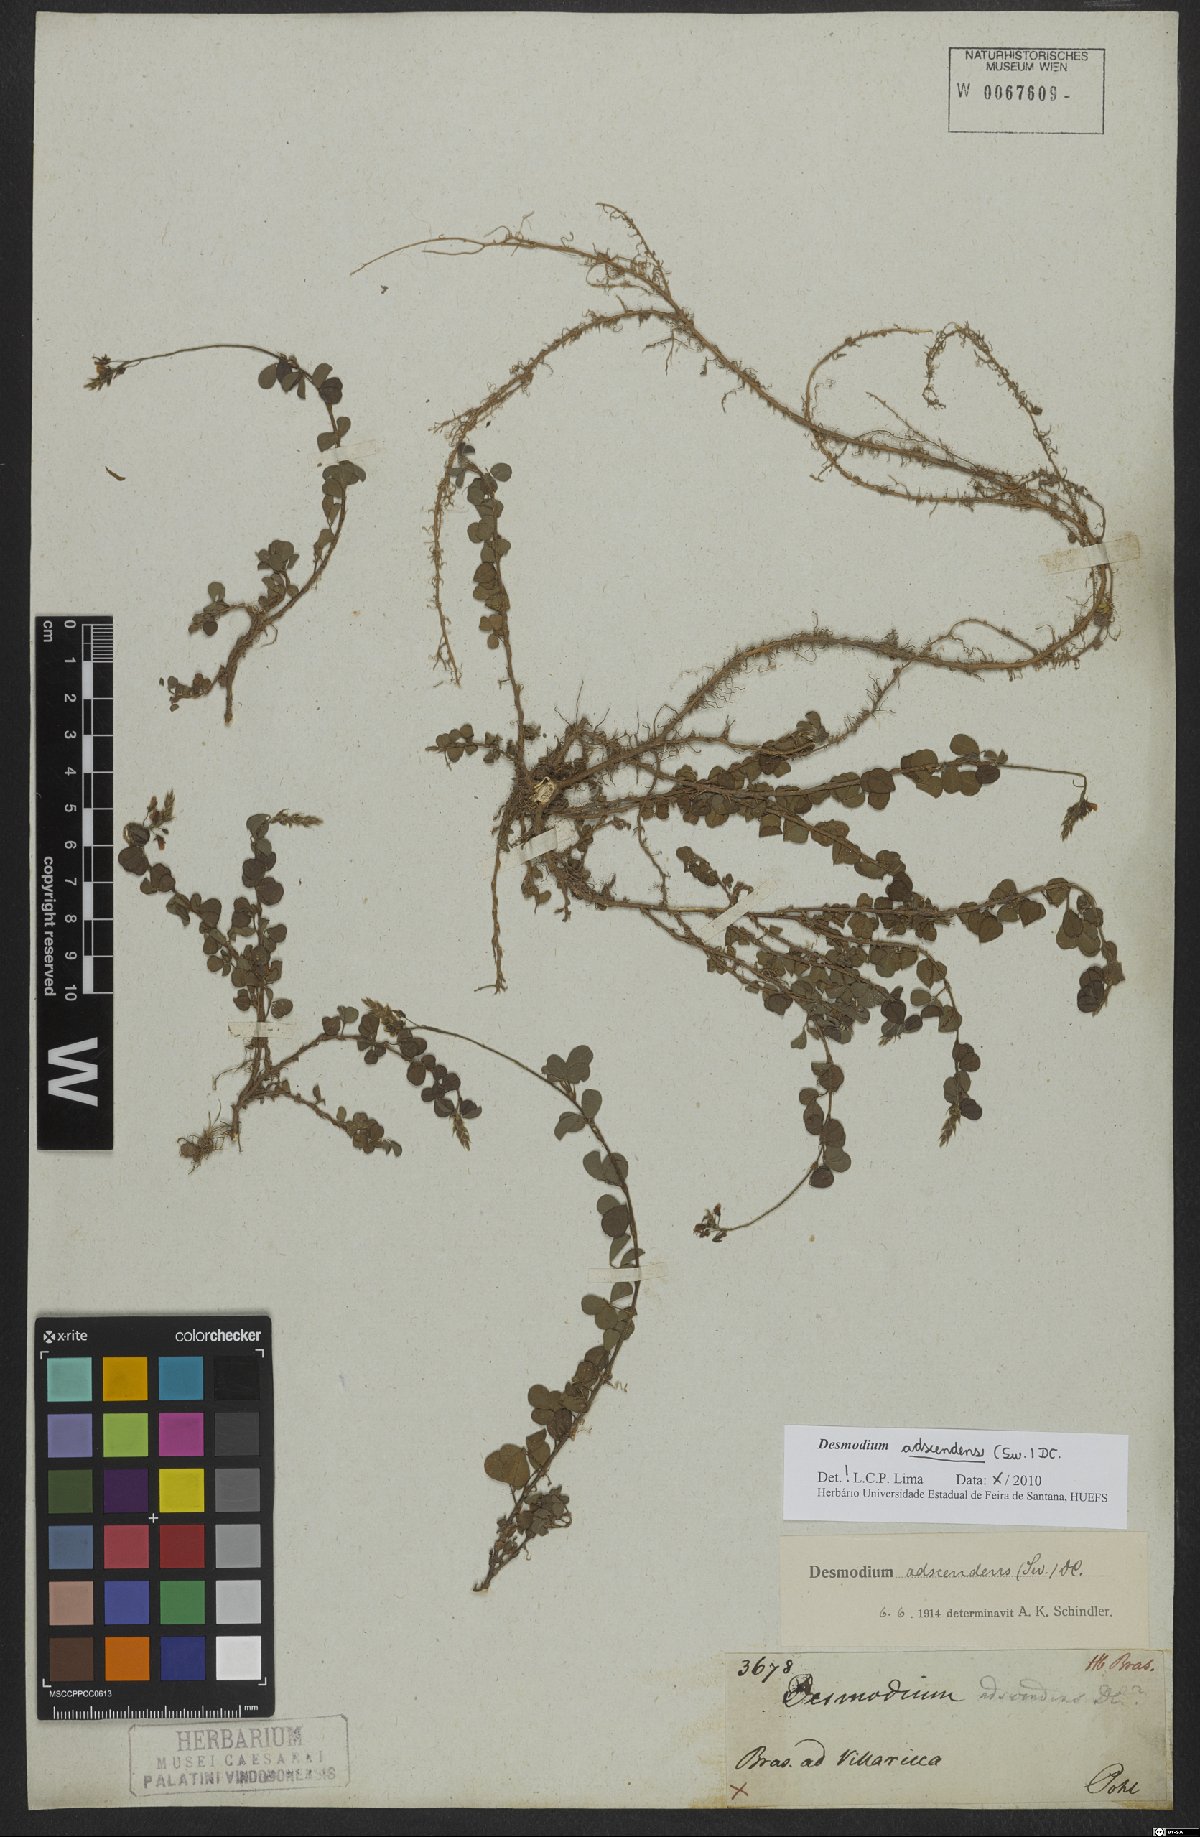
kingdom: Plantae
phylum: Tracheophyta
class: Magnoliopsida
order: Fabales
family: Fabaceae
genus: Grona
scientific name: Grona adscendens
